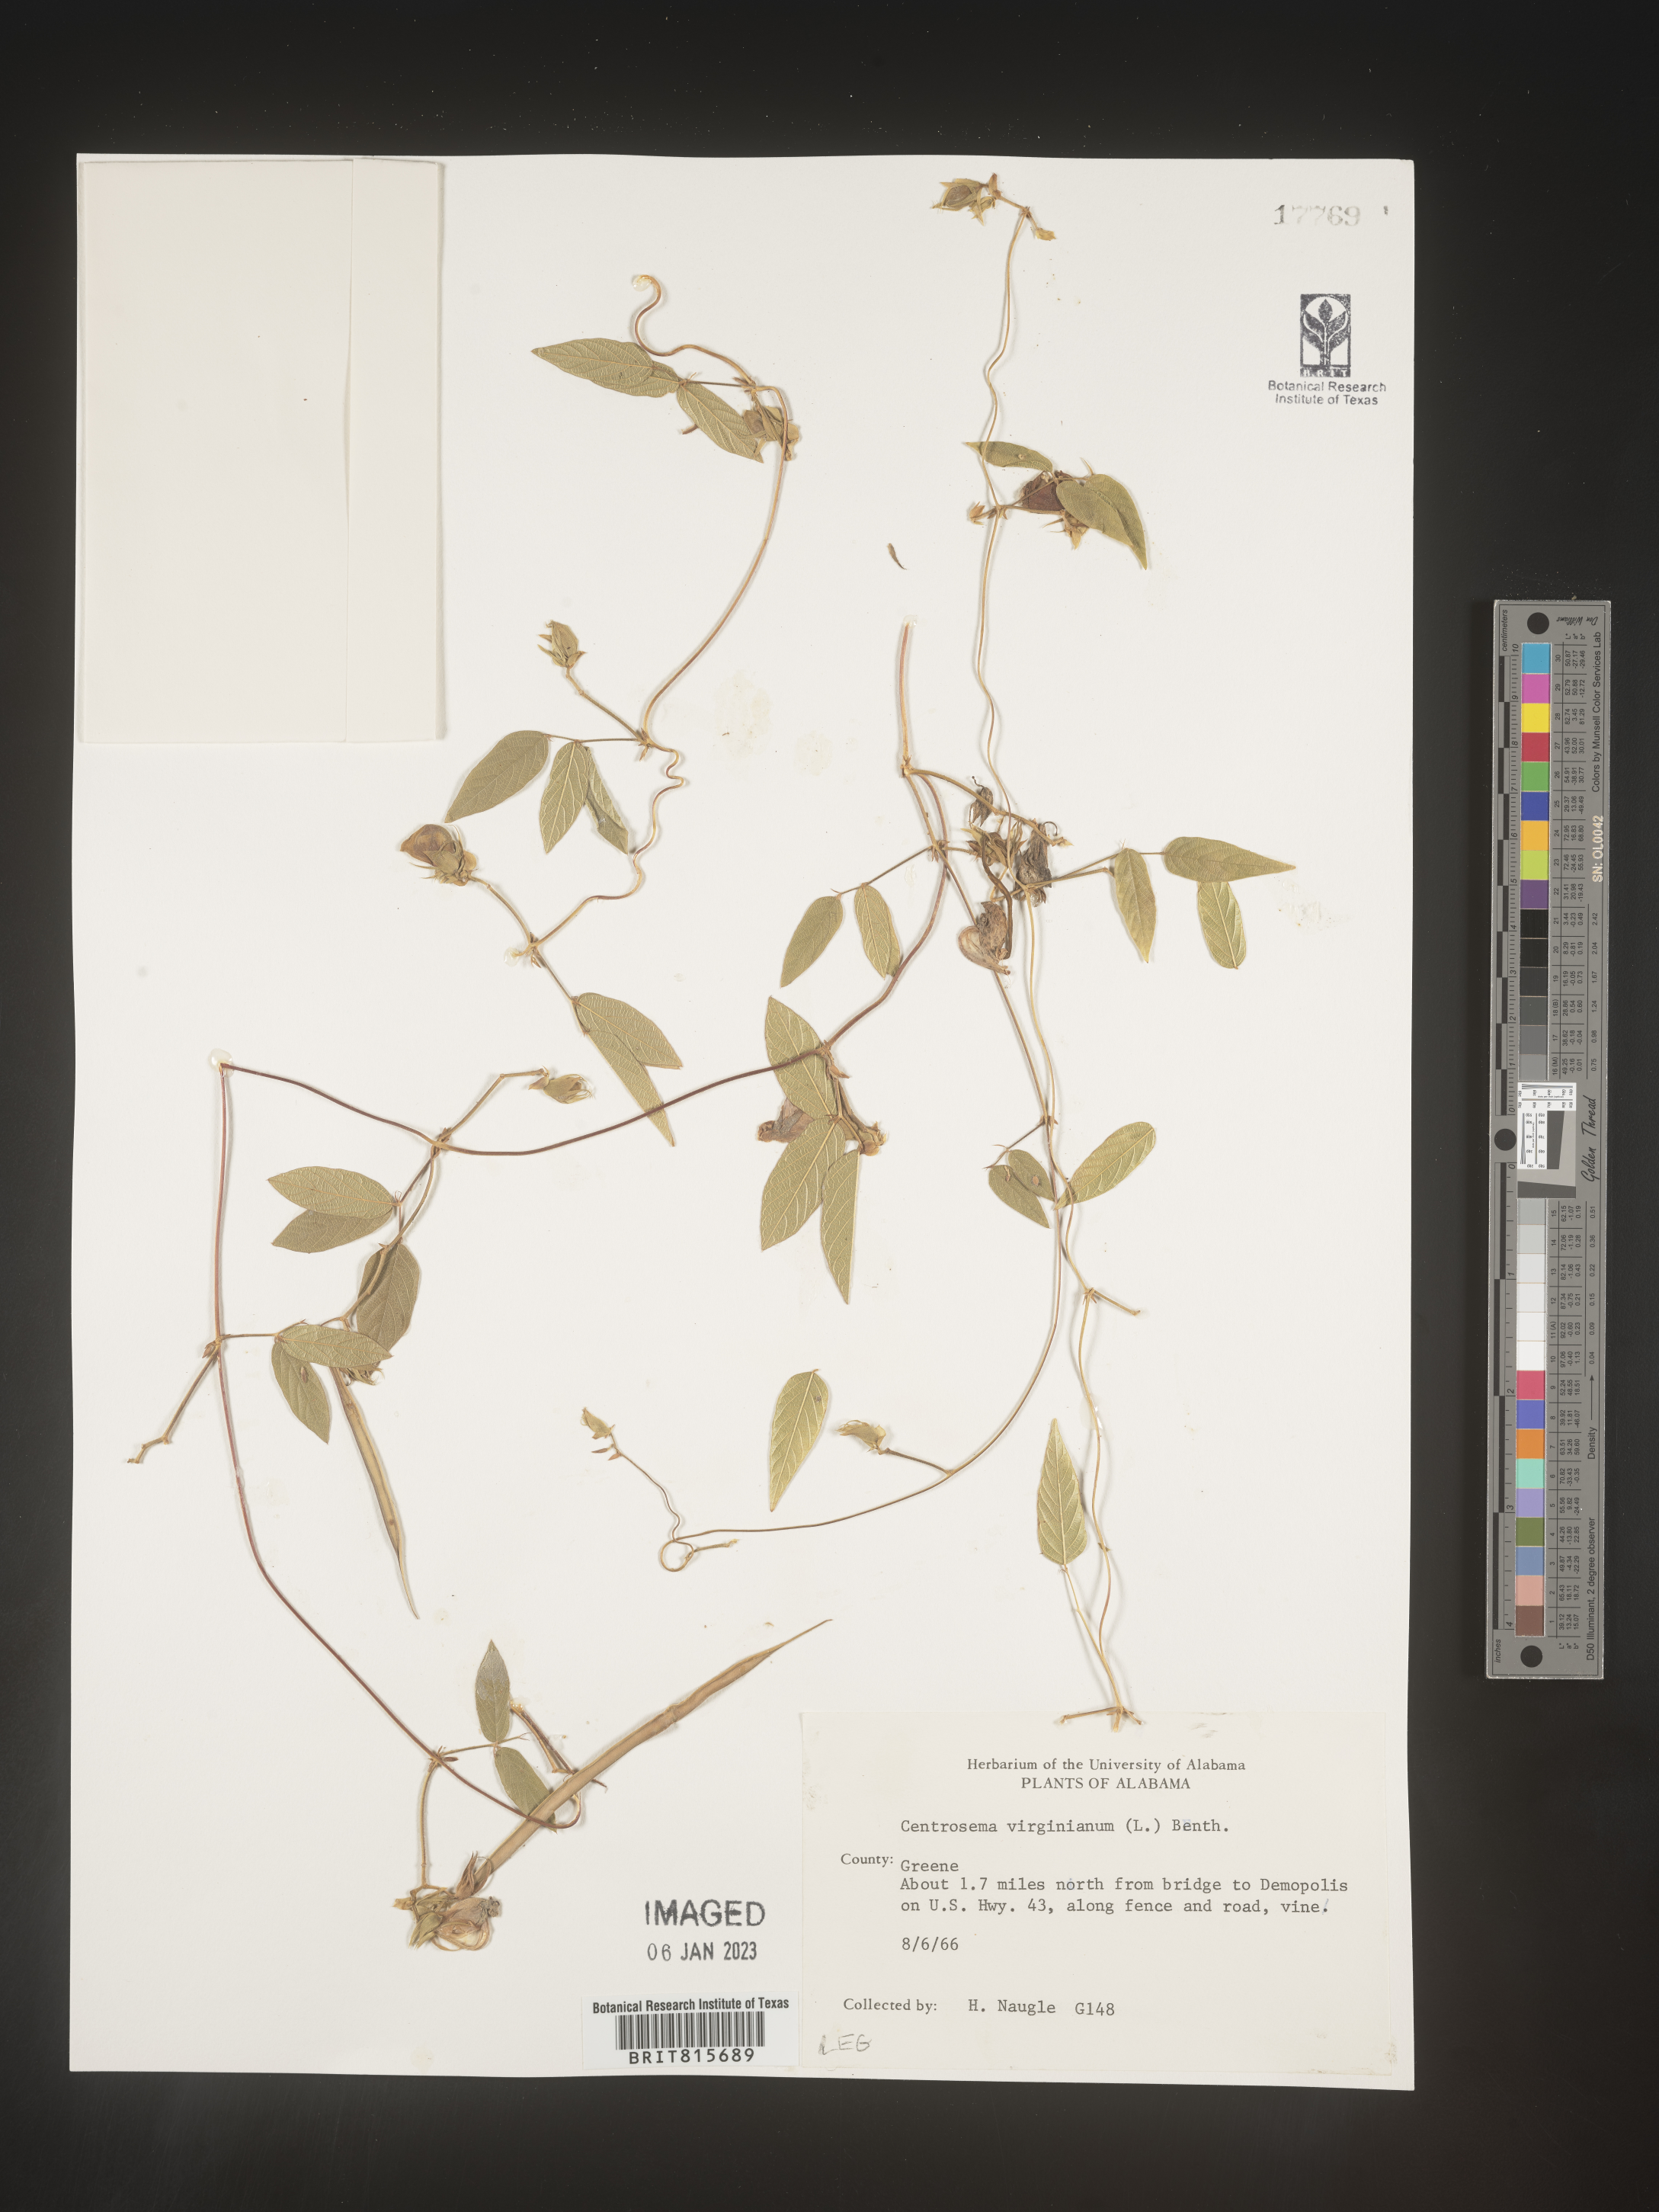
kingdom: Plantae
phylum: Tracheophyta
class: Magnoliopsida
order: Fabales
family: Fabaceae
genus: Centrosema
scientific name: Centrosema virginianum
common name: Butterfly-pea
